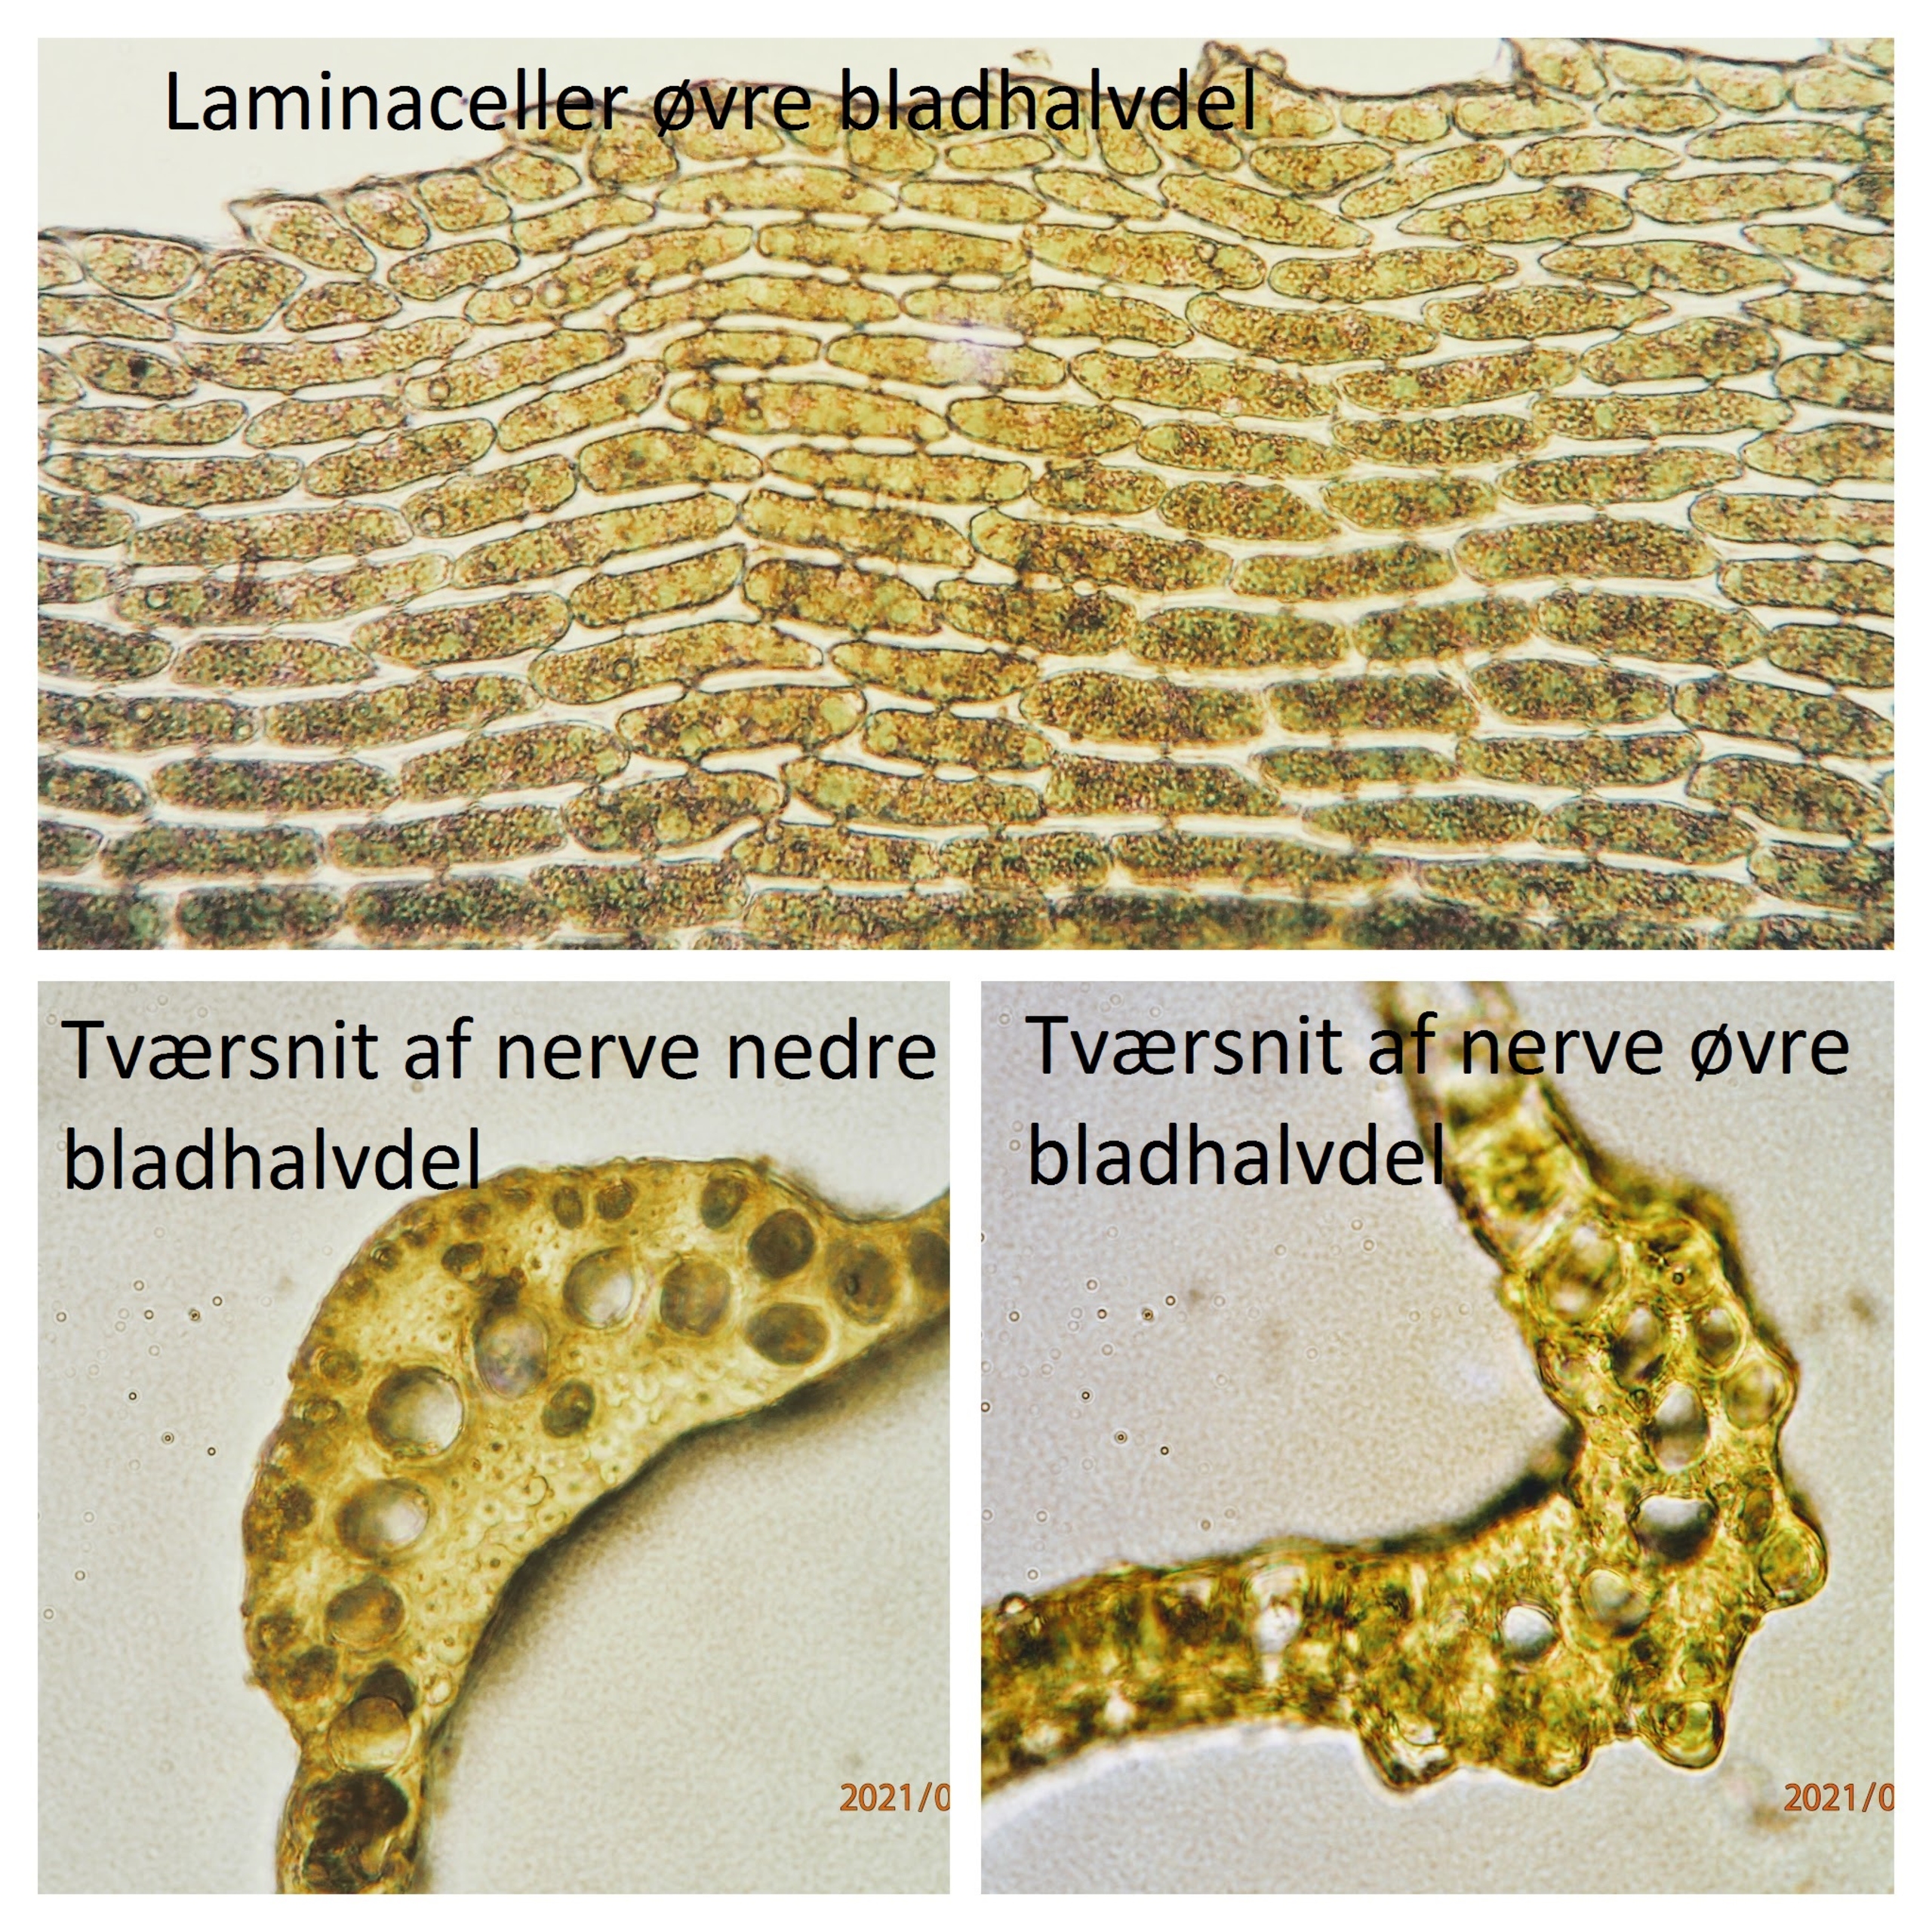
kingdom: Plantae
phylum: Bryophyta
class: Bryopsida
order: Dicranales
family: Dicranaceae
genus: Dicranum
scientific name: Dicranum scoparium
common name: Almindelig kløvtand
